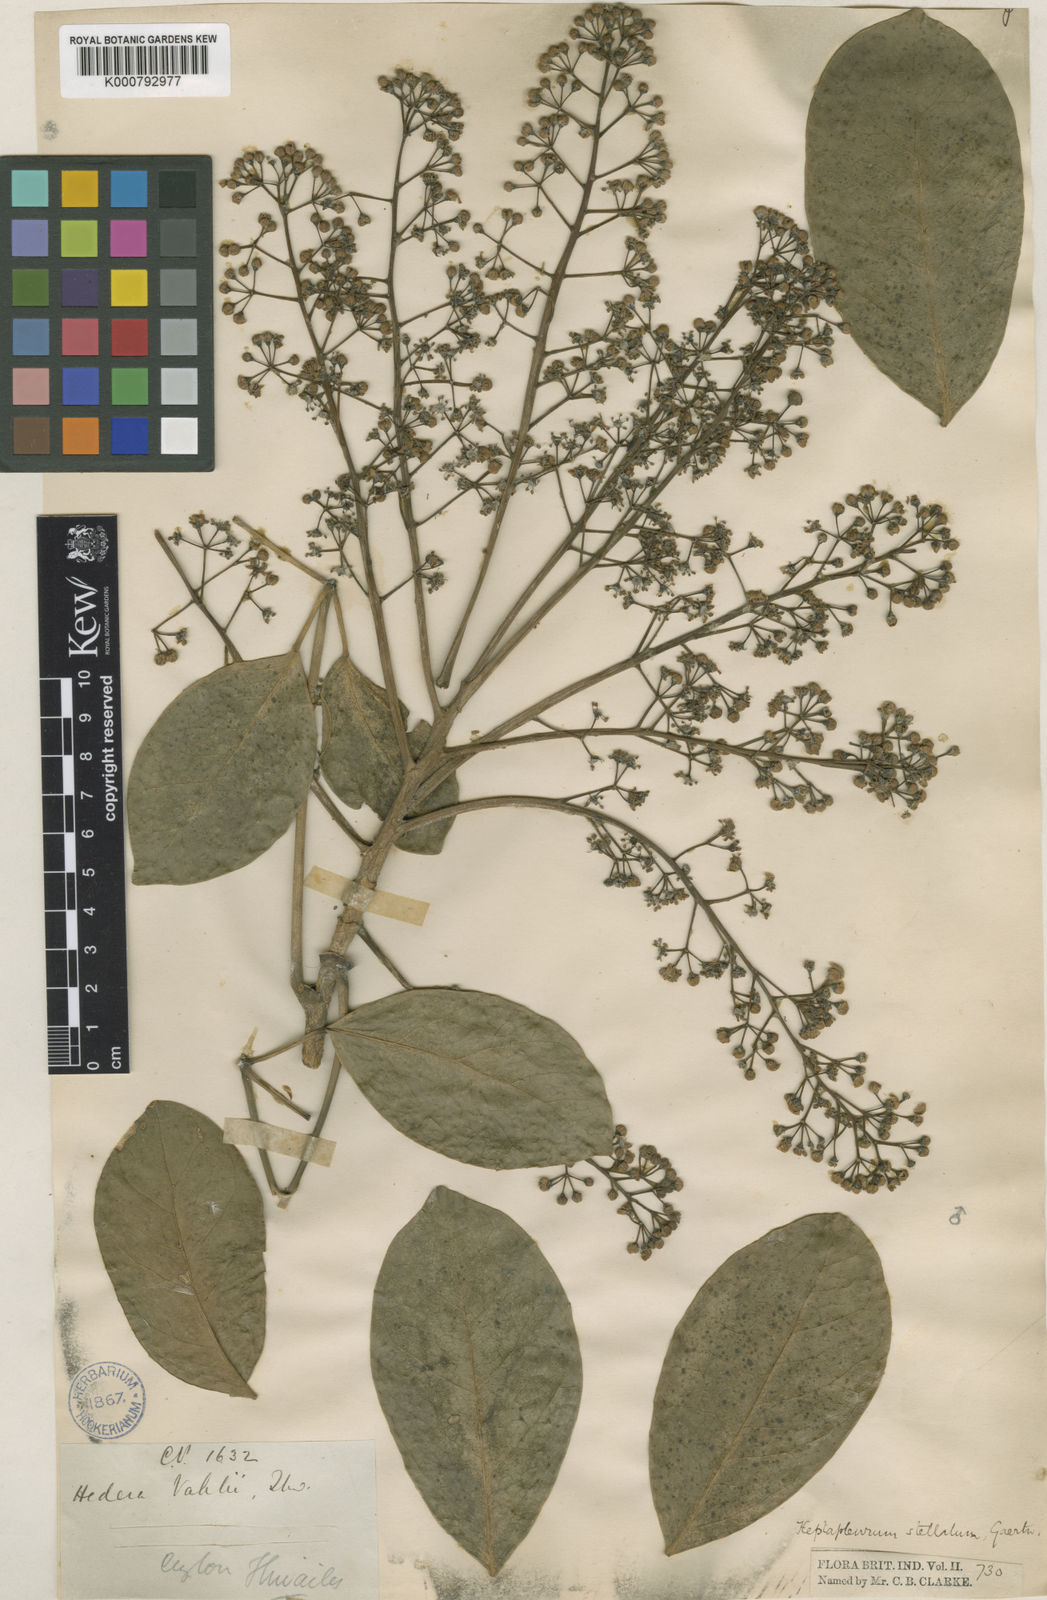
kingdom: Plantae
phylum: Tracheophyta
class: Magnoliopsida
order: Apiales
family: Araliaceae
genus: Heptapleurum
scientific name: Heptapleurum stellatum
